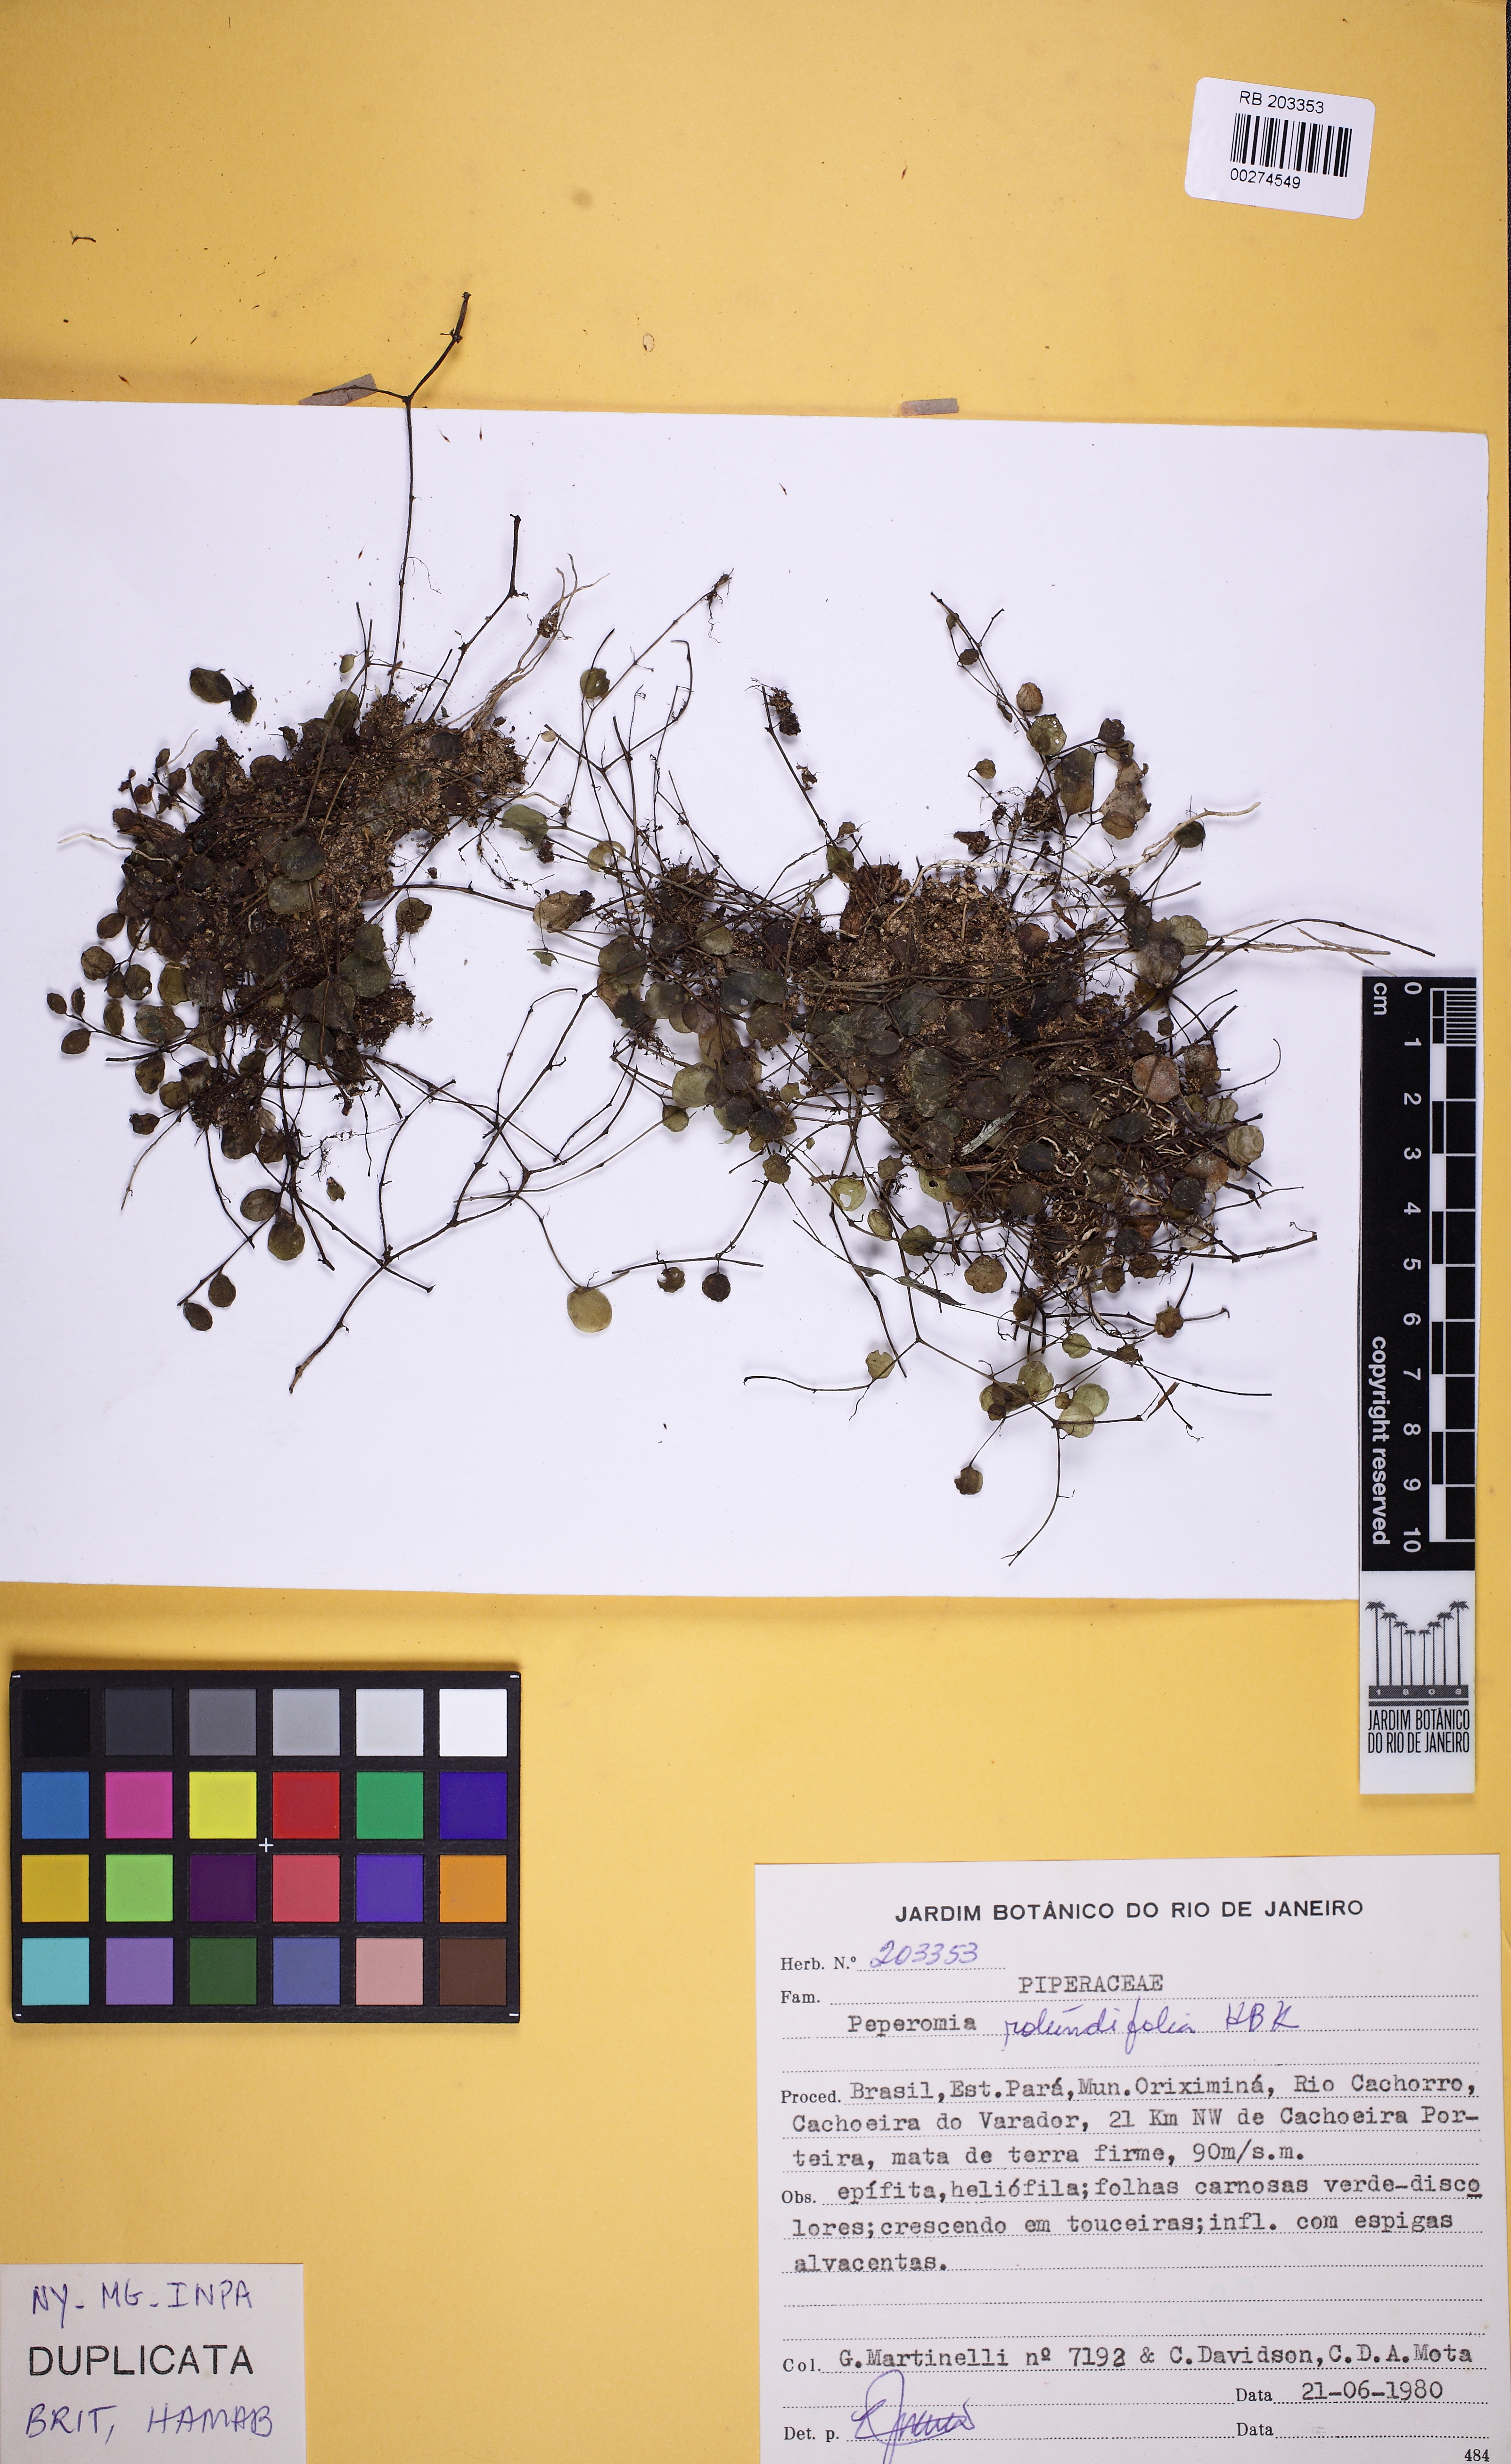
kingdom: Plantae
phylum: Tracheophyta
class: Magnoliopsida
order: Piperales
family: Piperaceae
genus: Peperomia
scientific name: Peperomia rotundifolia
